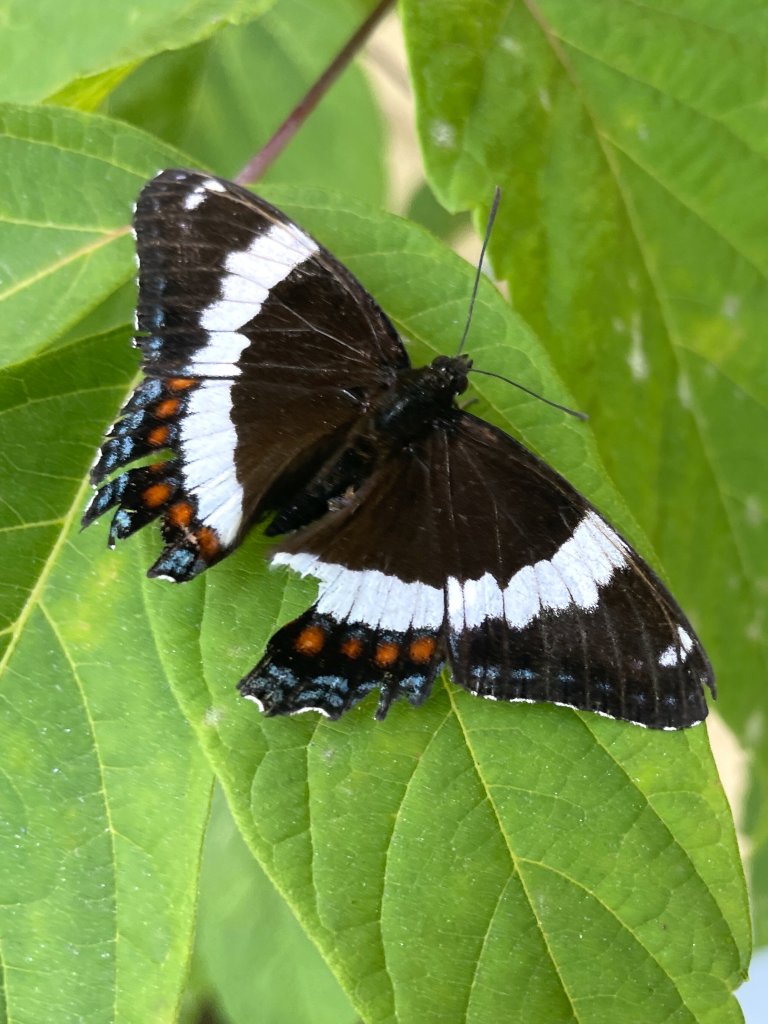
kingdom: Animalia
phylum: Arthropoda
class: Insecta
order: Lepidoptera
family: Nymphalidae
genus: Limenitis
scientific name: Limenitis arthemis
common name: Red-spotted Admiral
